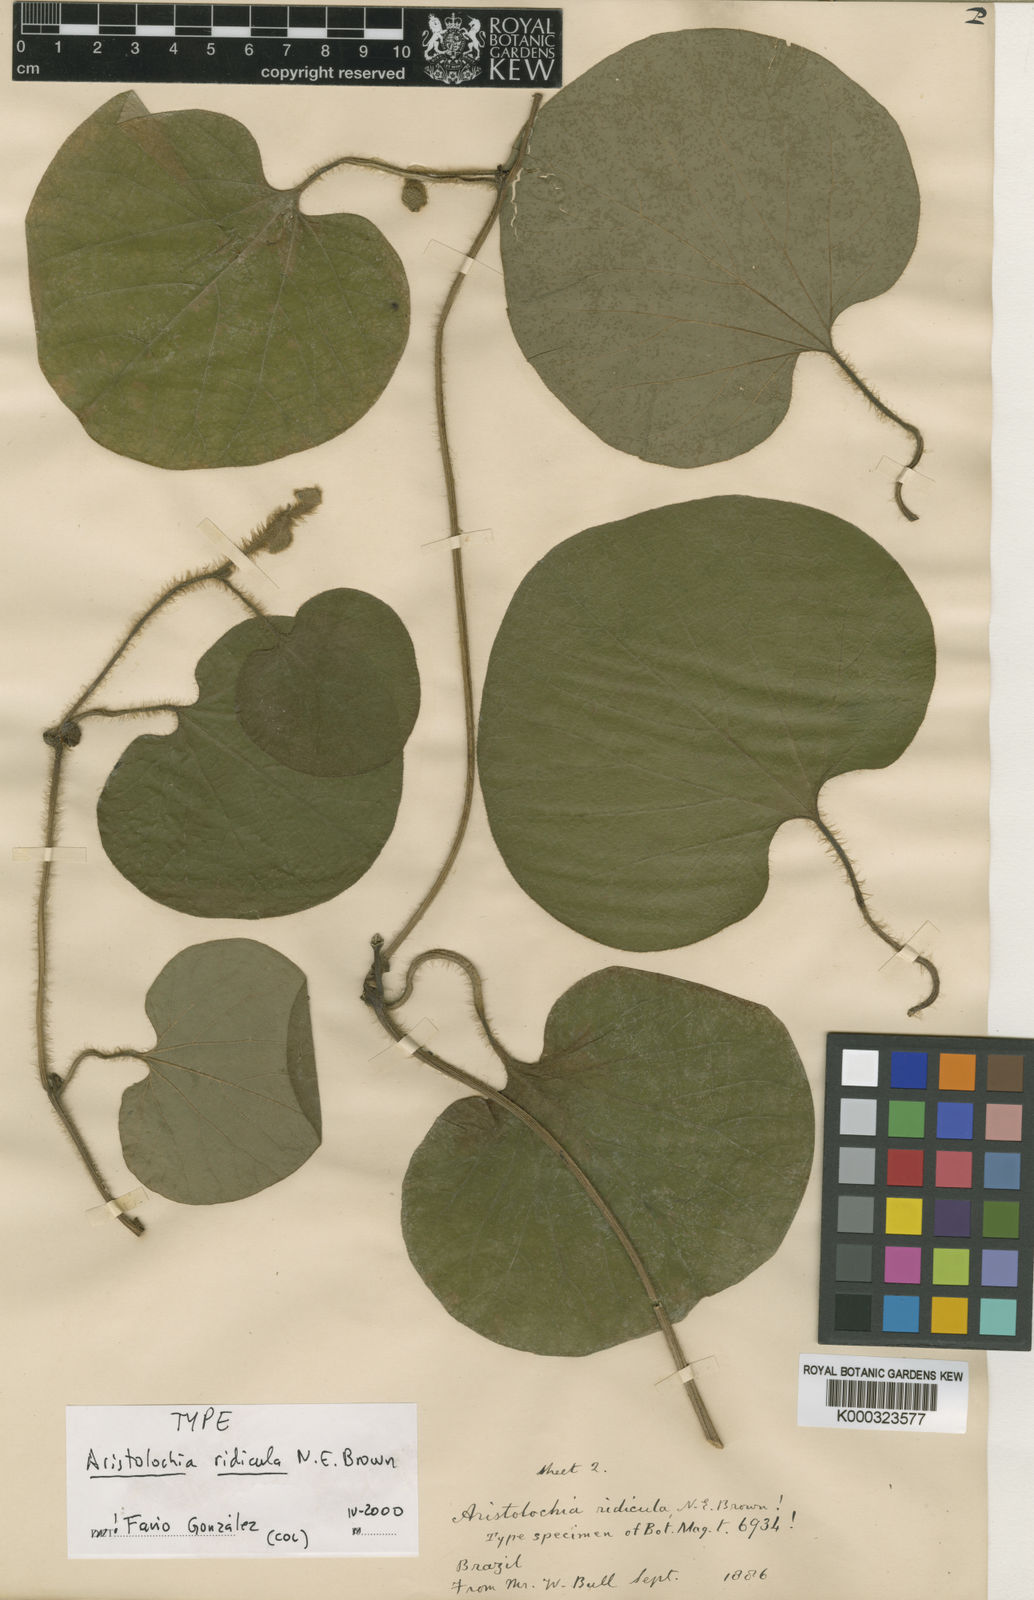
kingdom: Plantae
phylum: Tracheophyta
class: Magnoliopsida
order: Piperales
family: Aristolochiaceae
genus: Aristolochia
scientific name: Aristolochia ridicula
